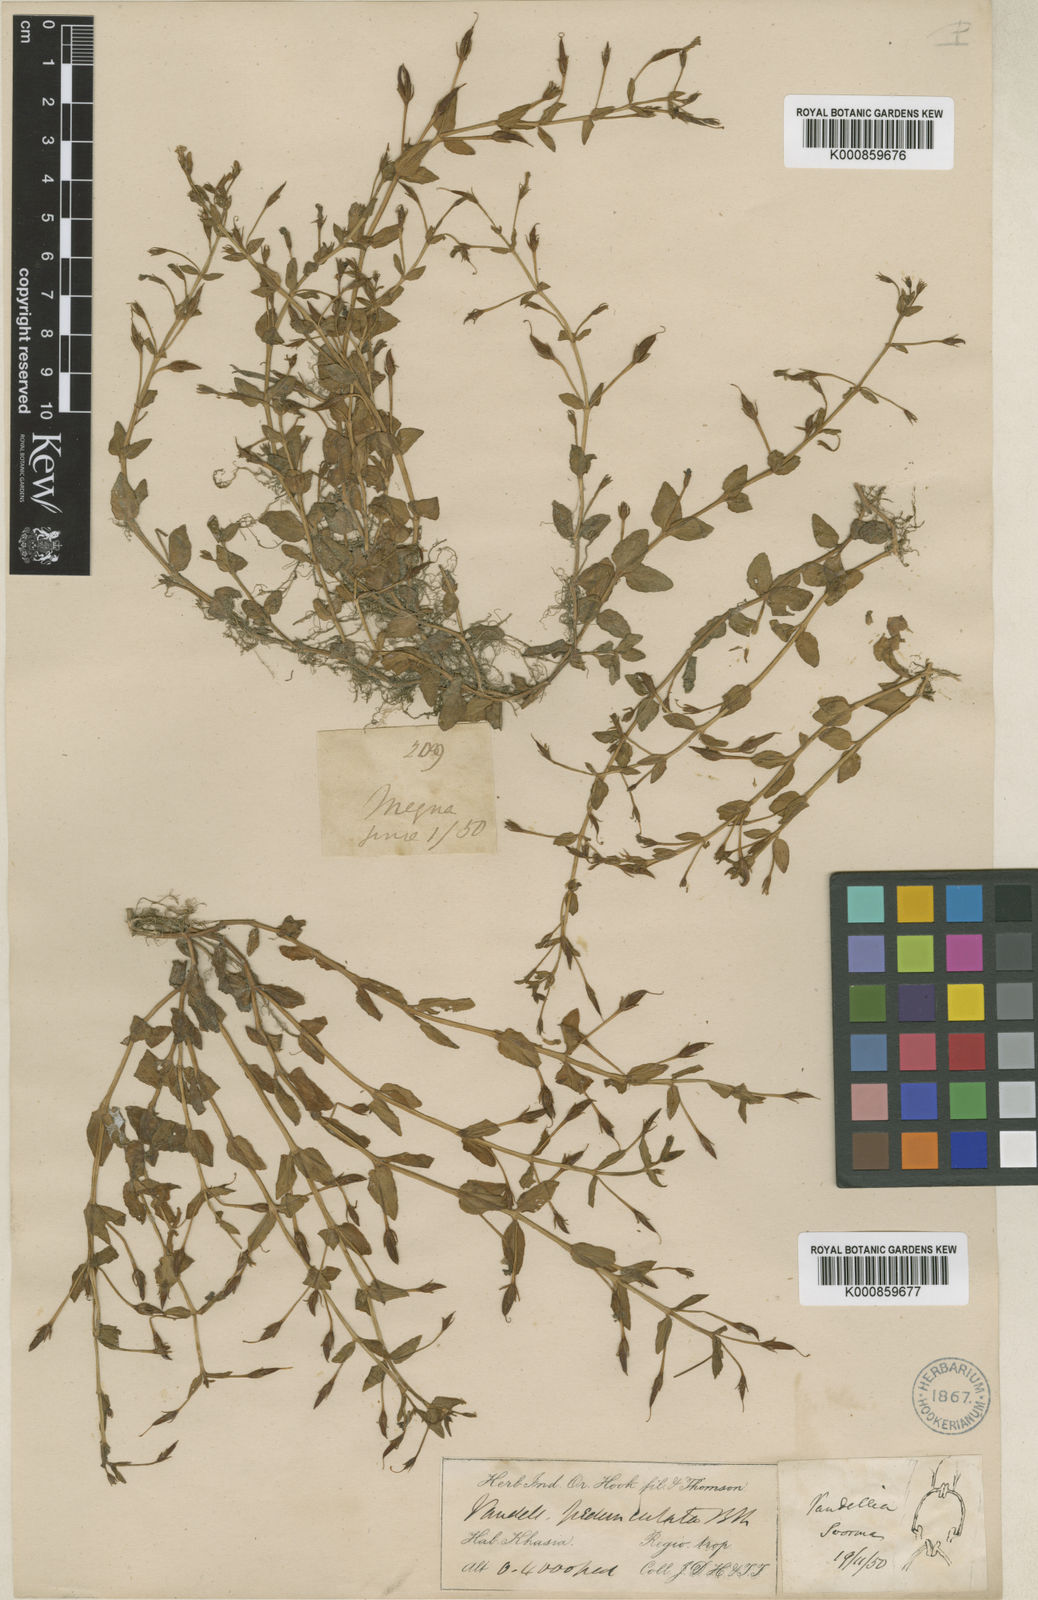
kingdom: Plantae
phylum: Tracheophyta
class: Magnoliopsida
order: Lamiales
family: Linderniaceae
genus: Torenia
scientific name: Torenia anagallis
